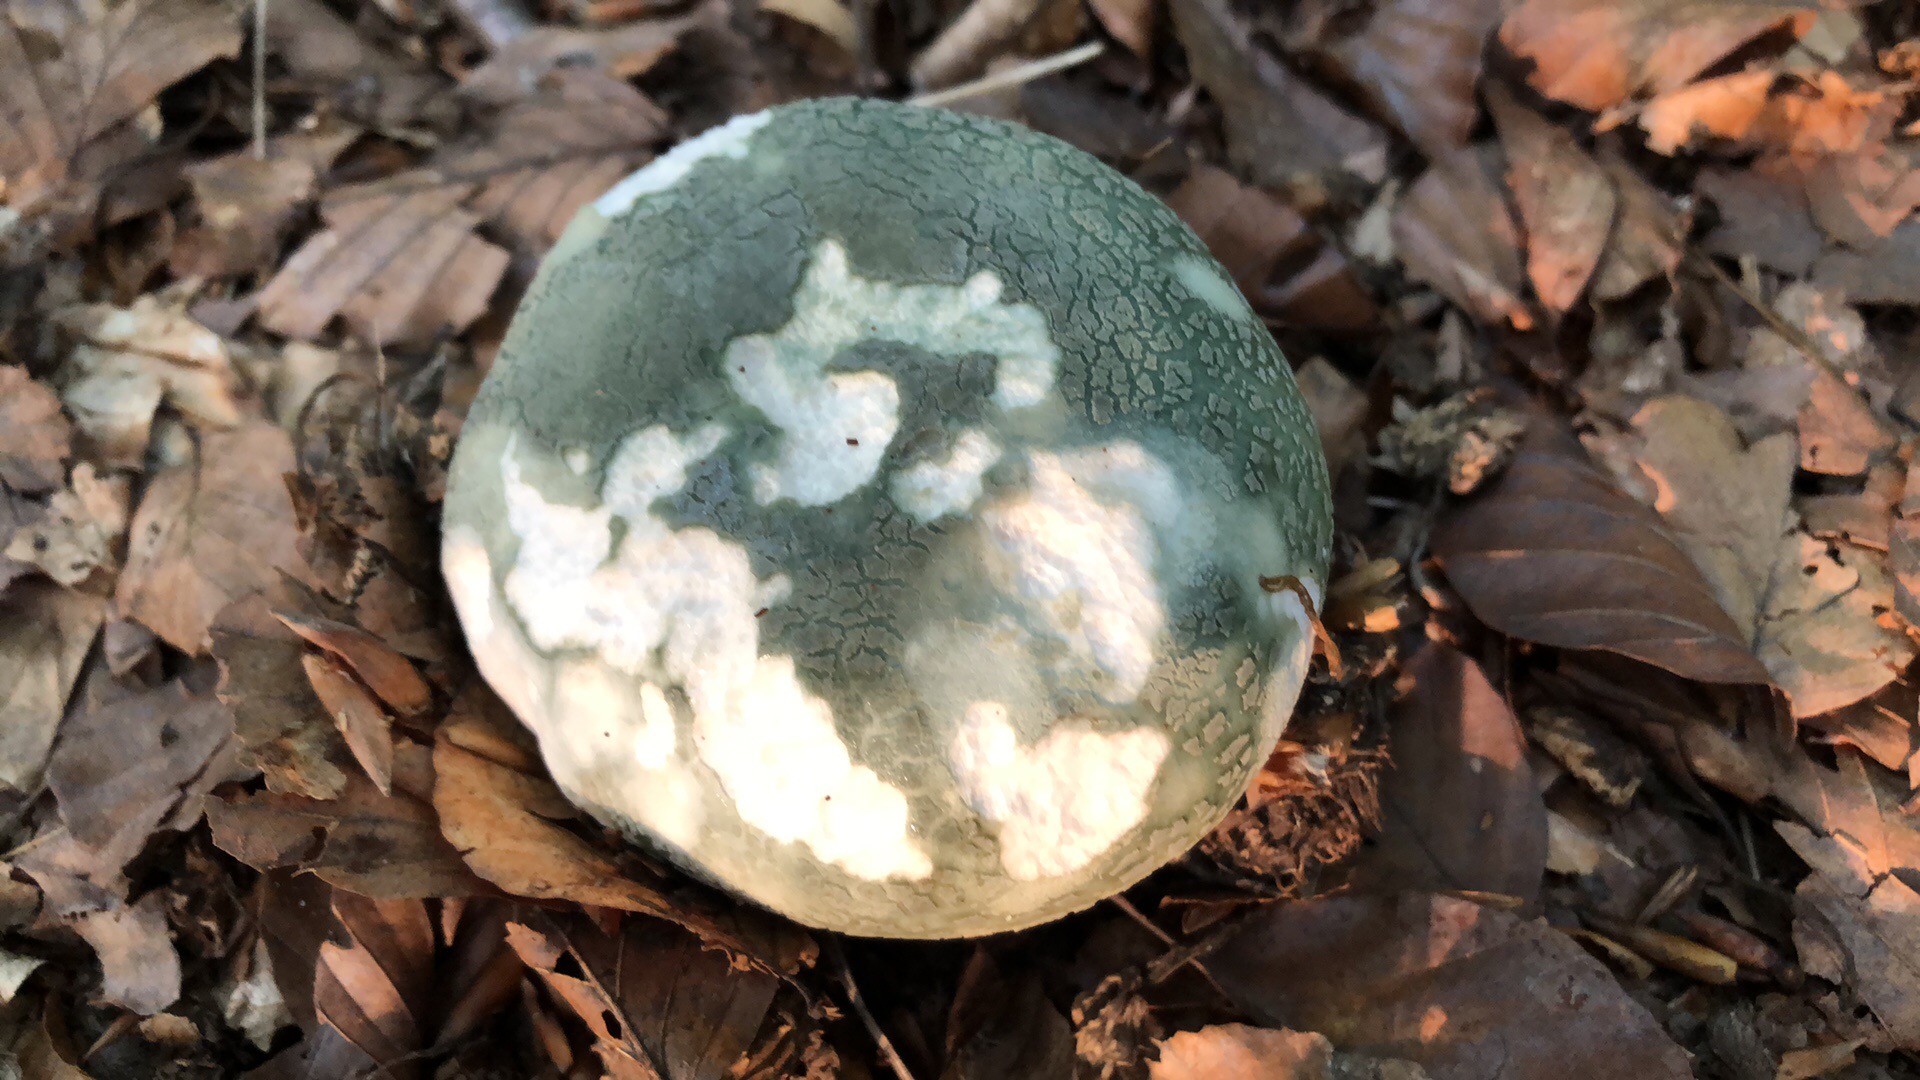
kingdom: Fungi
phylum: Basidiomycota
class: Agaricomycetes
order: Russulales
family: Russulaceae
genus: Russula
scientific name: Russula virescens
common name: spanskgrøn skørhat
